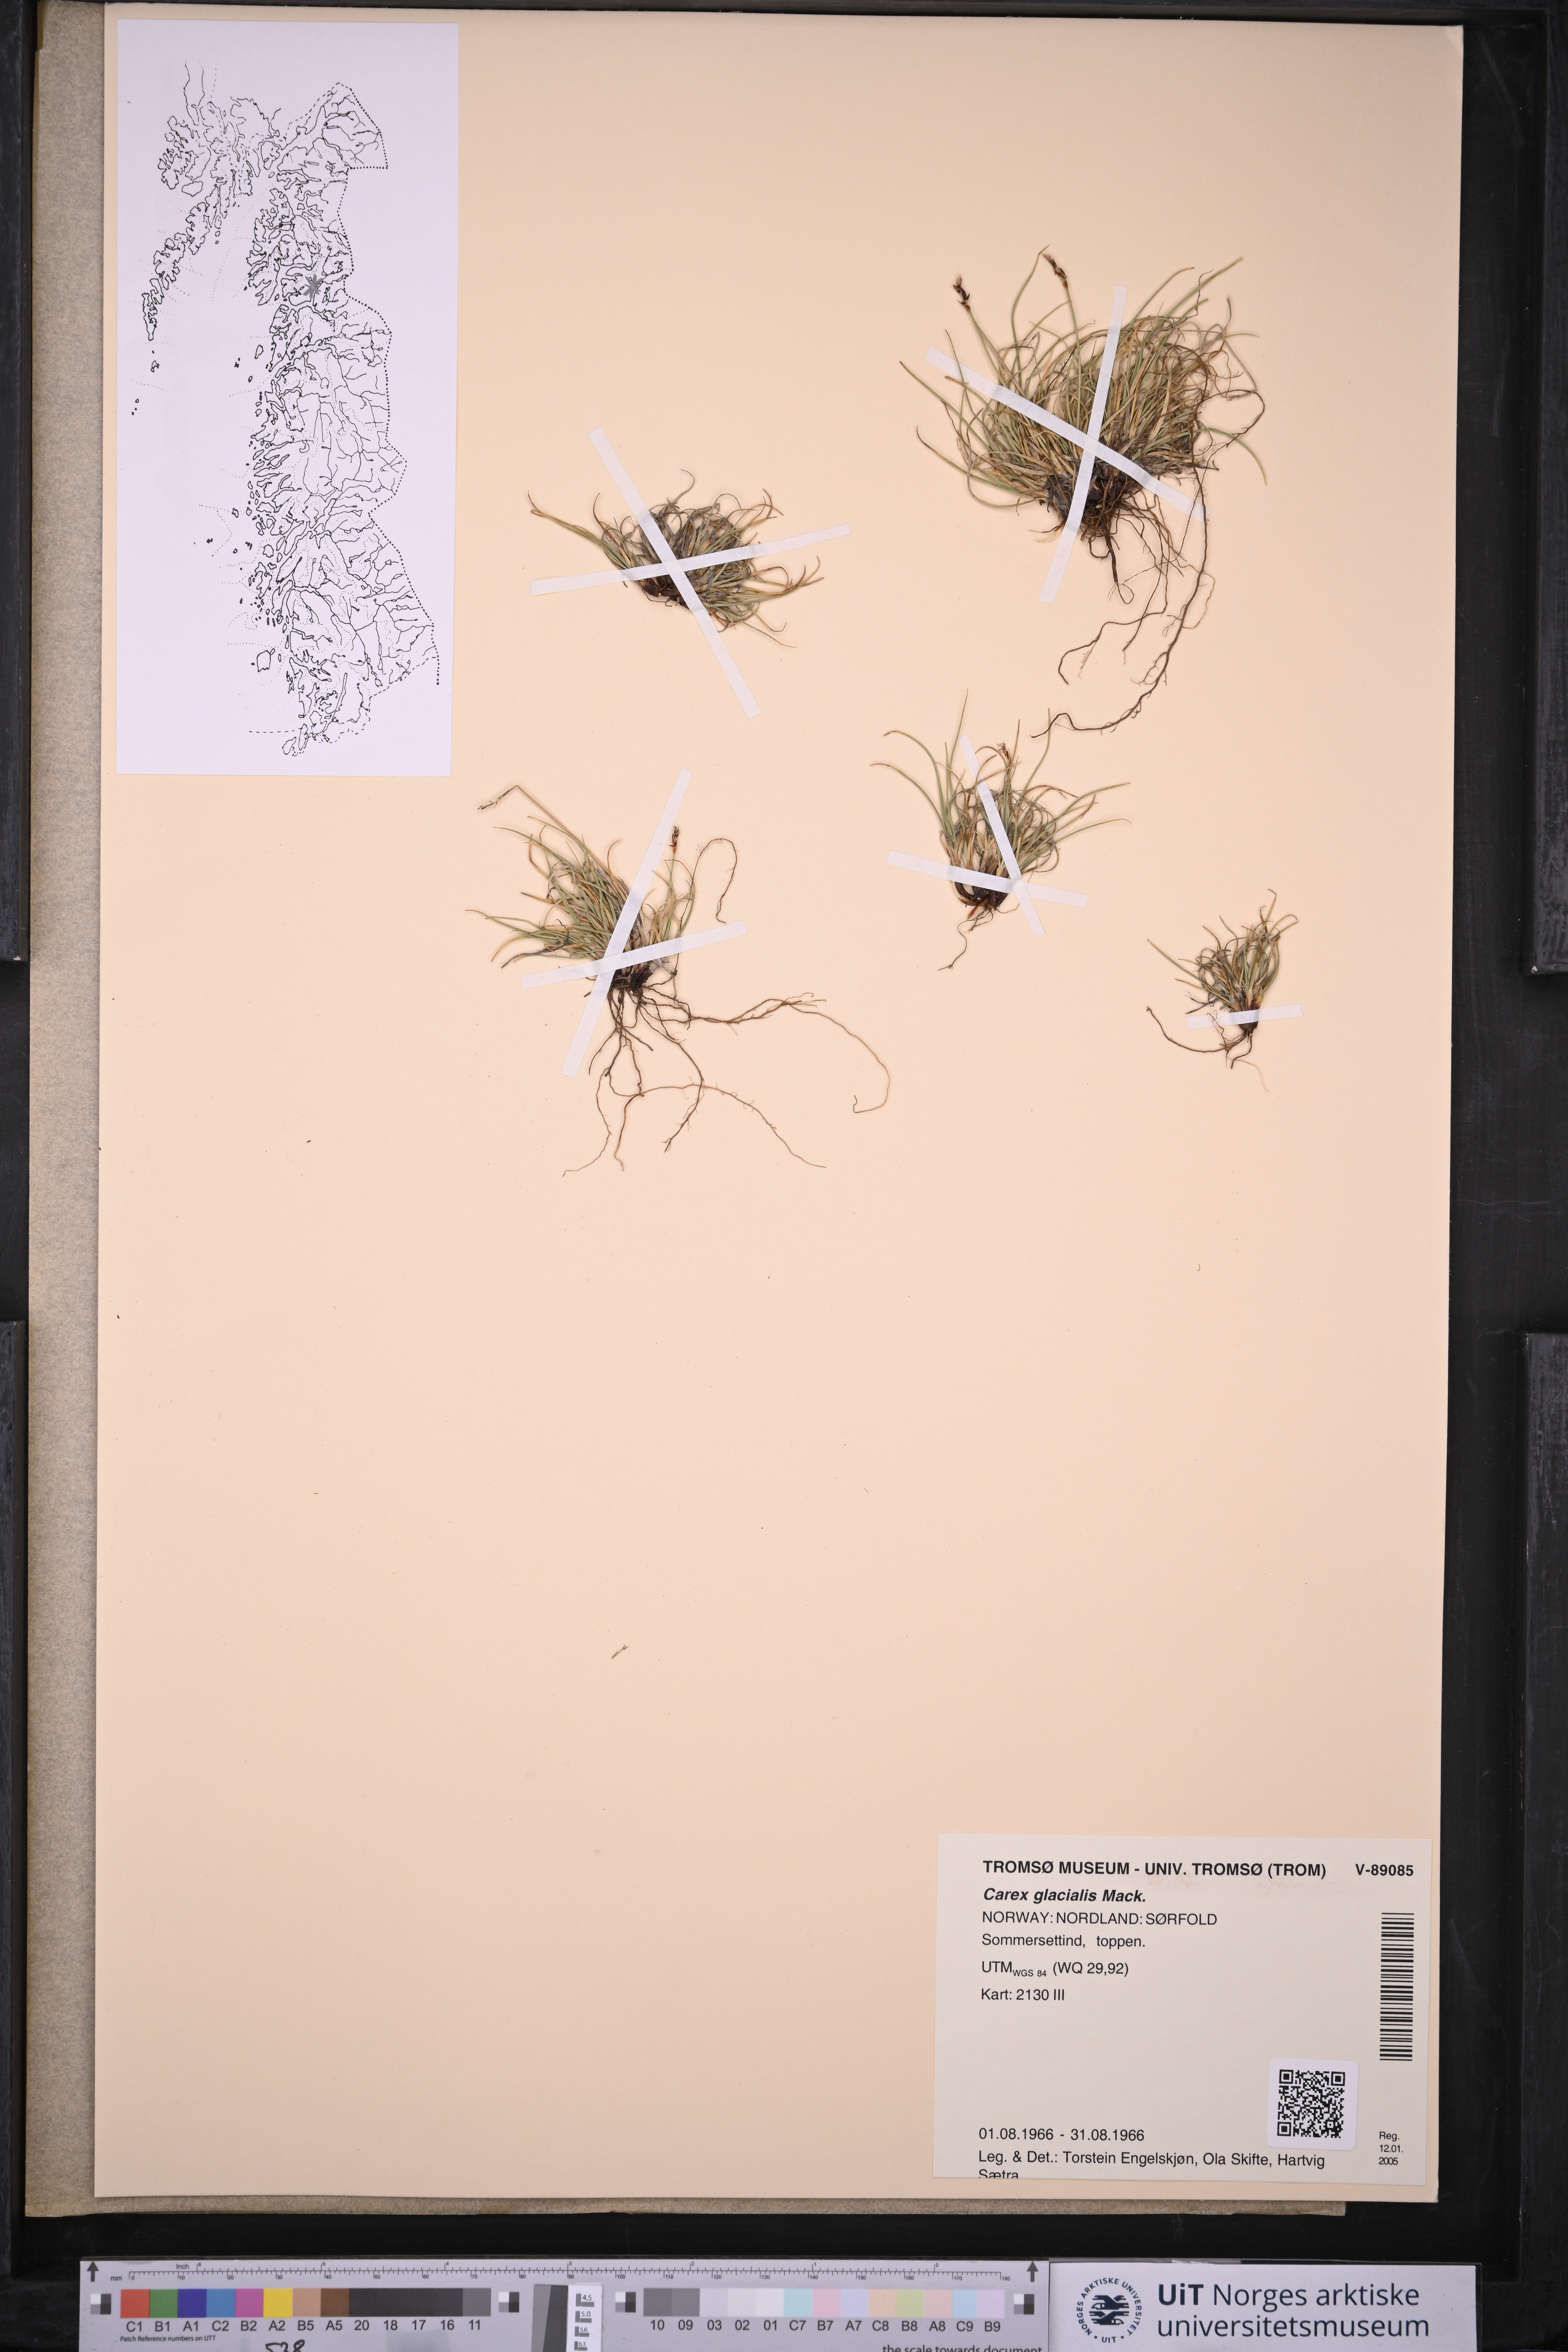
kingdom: Plantae
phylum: Tracheophyta
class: Liliopsida
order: Poales
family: Cyperaceae
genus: Carex
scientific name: Carex glacialis
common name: Newfoundland sedge
